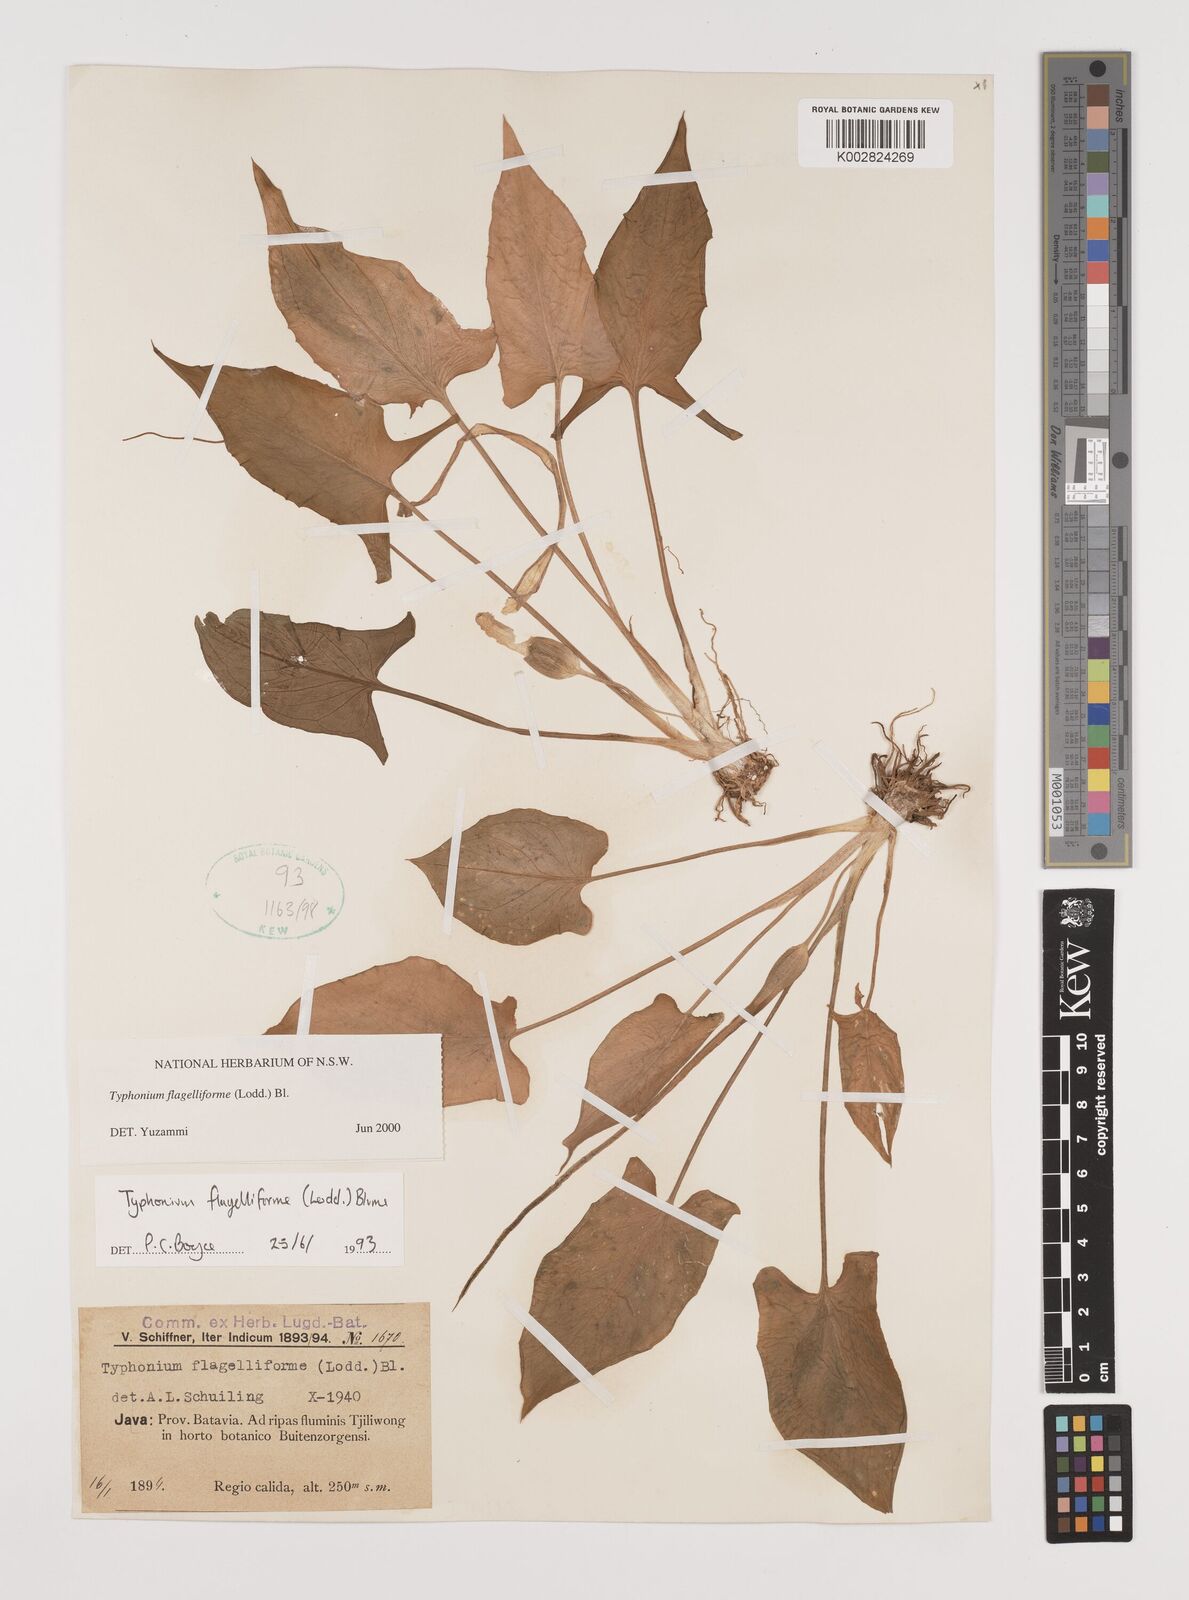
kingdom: Plantae
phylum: Tracheophyta
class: Liliopsida
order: Alismatales
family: Araceae
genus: Typhonium
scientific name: Typhonium flagelliforme
